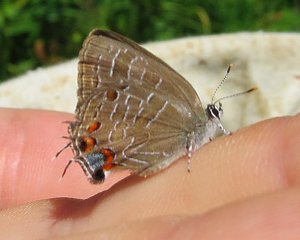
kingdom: Animalia
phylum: Arthropoda
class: Insecta
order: Lepidoptera
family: Lycaenidae
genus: Satyrium
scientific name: Satyrium liparops
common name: Striped Hairstreak
